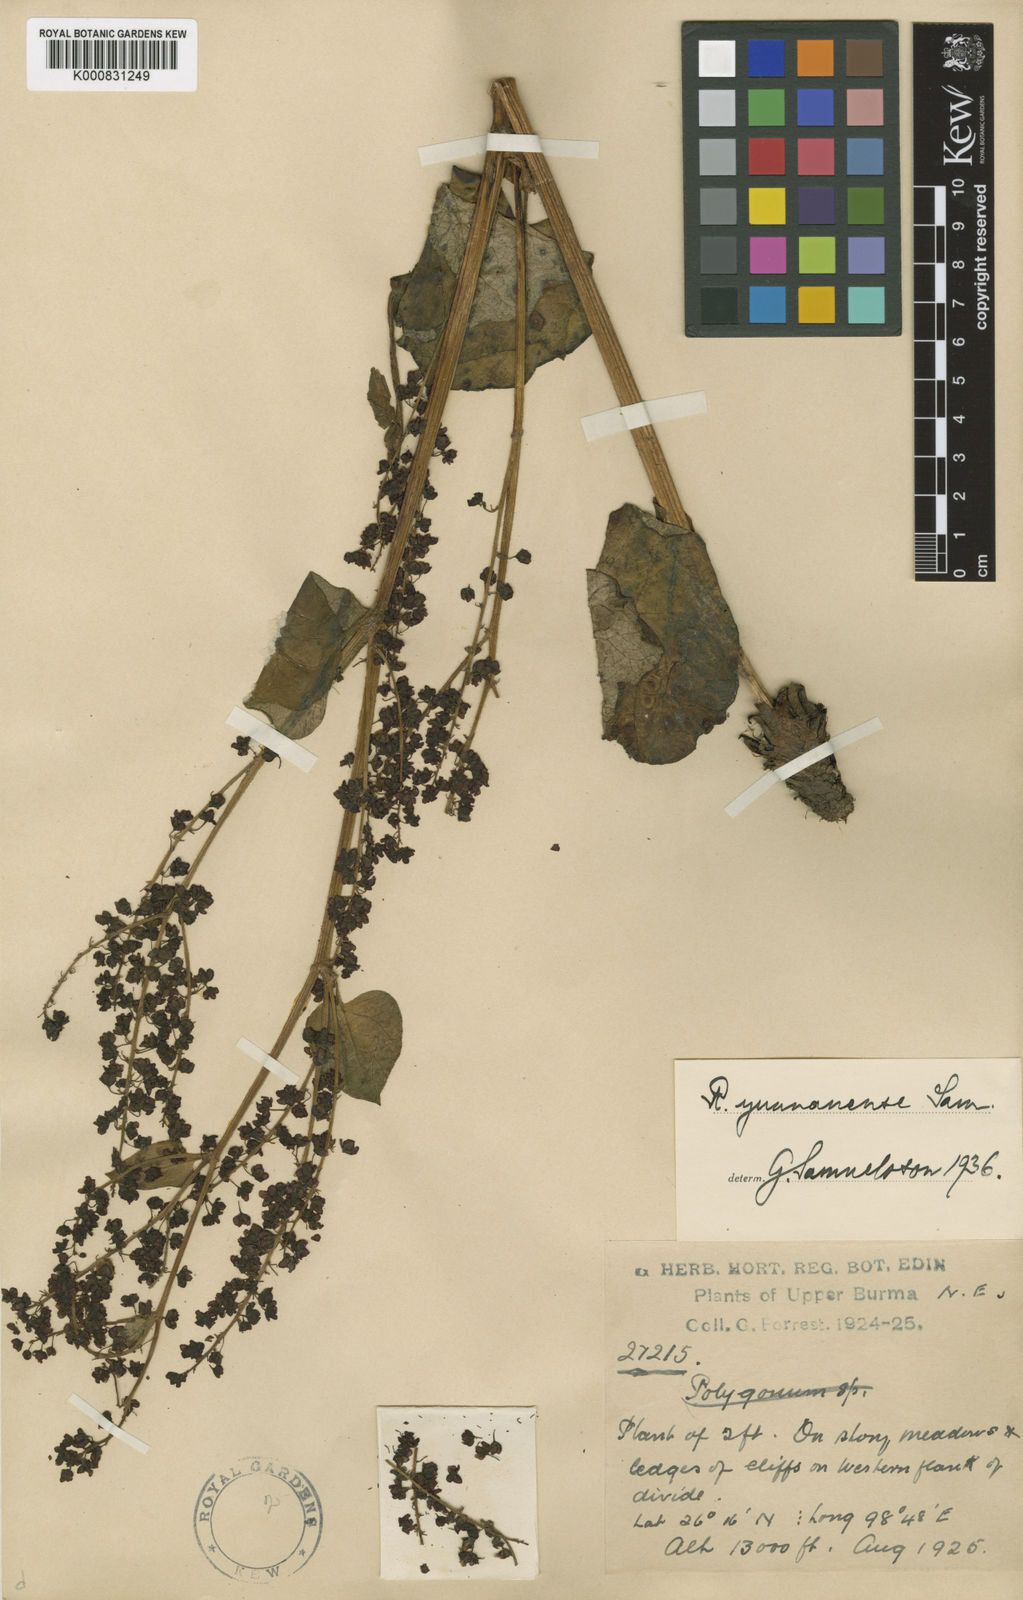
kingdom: Plantae
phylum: Tracheophyta
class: Magnoliopsida
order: Caryophyllales
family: Polygonaceae
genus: Rheum
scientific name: Rheum yunnanense
